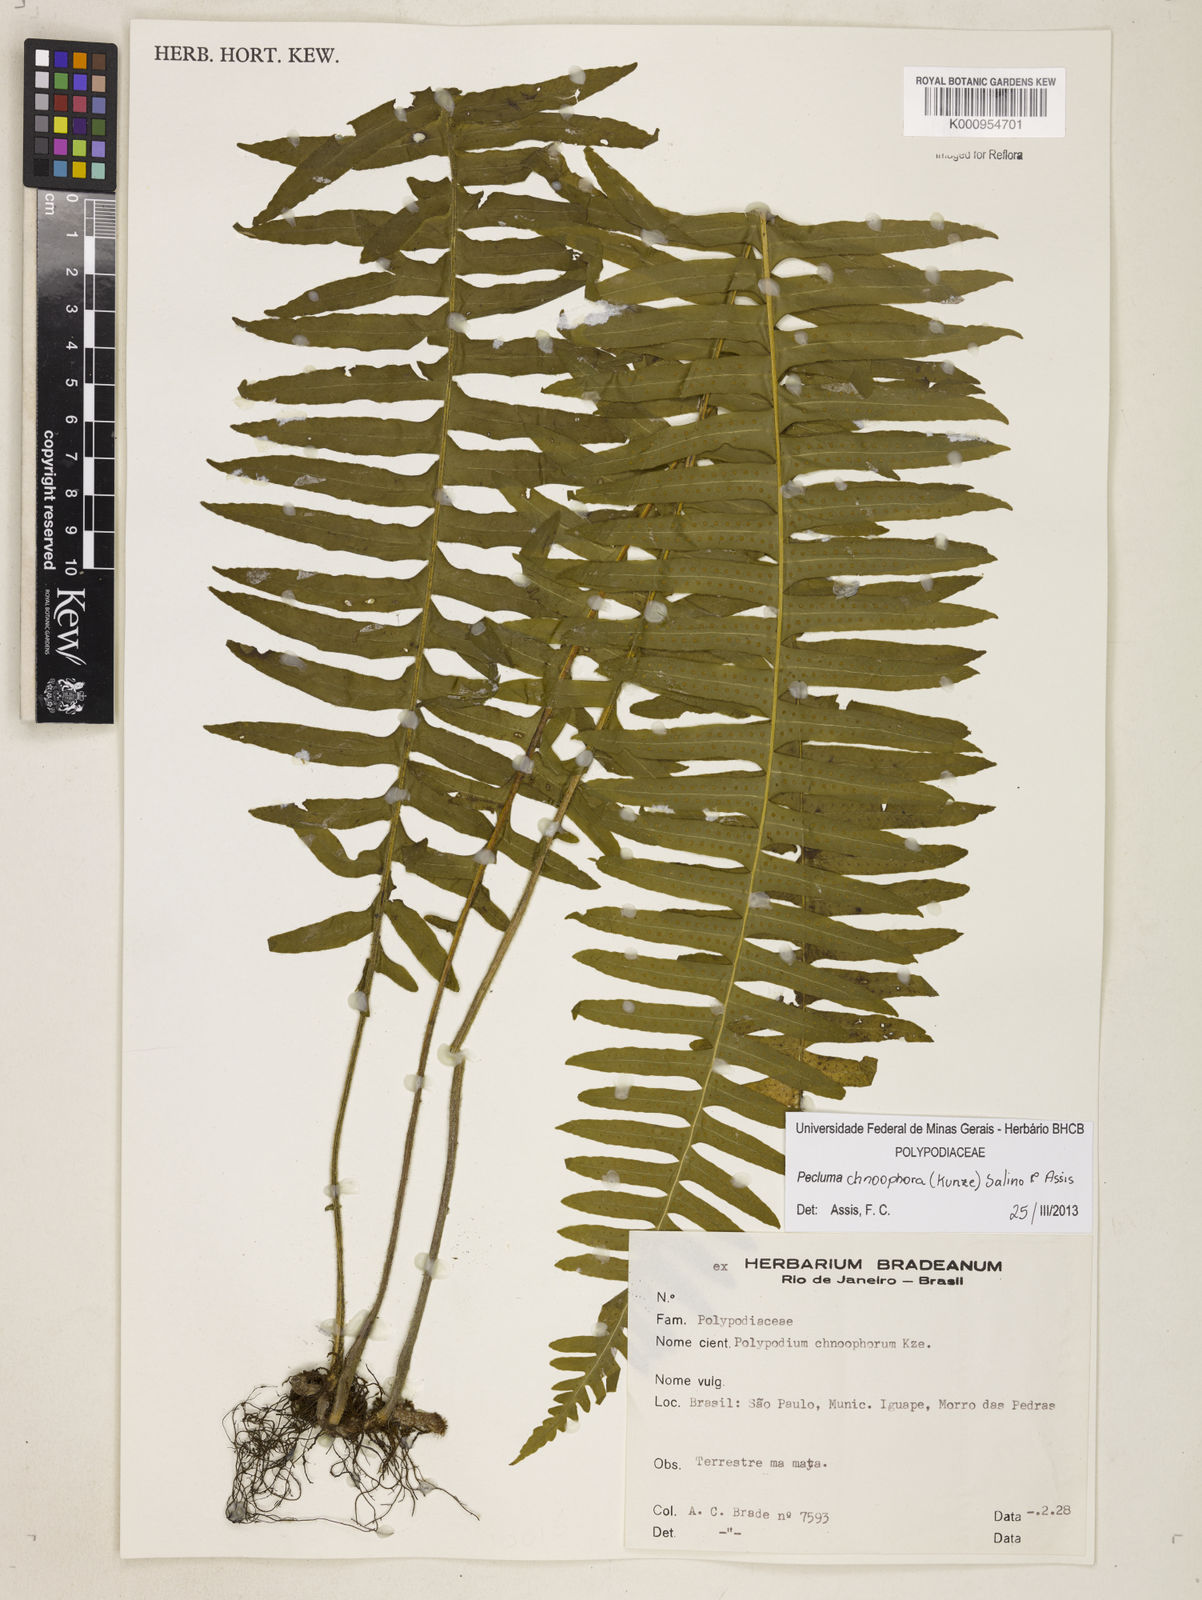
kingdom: Plantae
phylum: Tracheophyta
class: Polypodiopsida
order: Polypodiales
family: Polypodiaceae
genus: Pecluma
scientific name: Pecluma chnoophora
